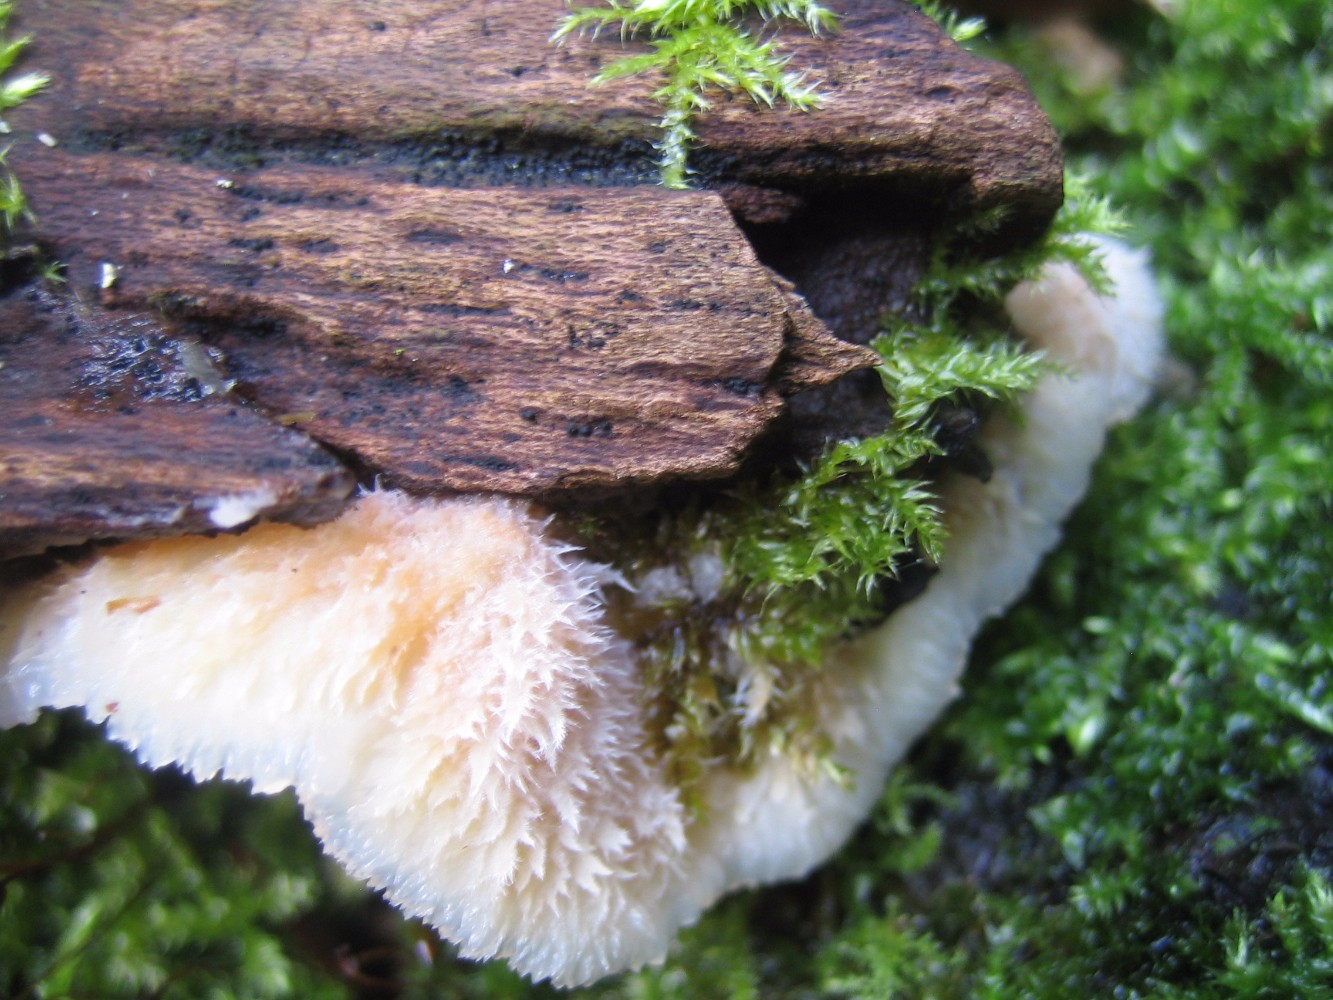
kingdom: Fungi
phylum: Basidiomycota
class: Agaricomycetes
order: Polyporales
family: Meruliaceae
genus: Phlebia
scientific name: Phlebia tremellosa
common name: bævrende åresvamp
